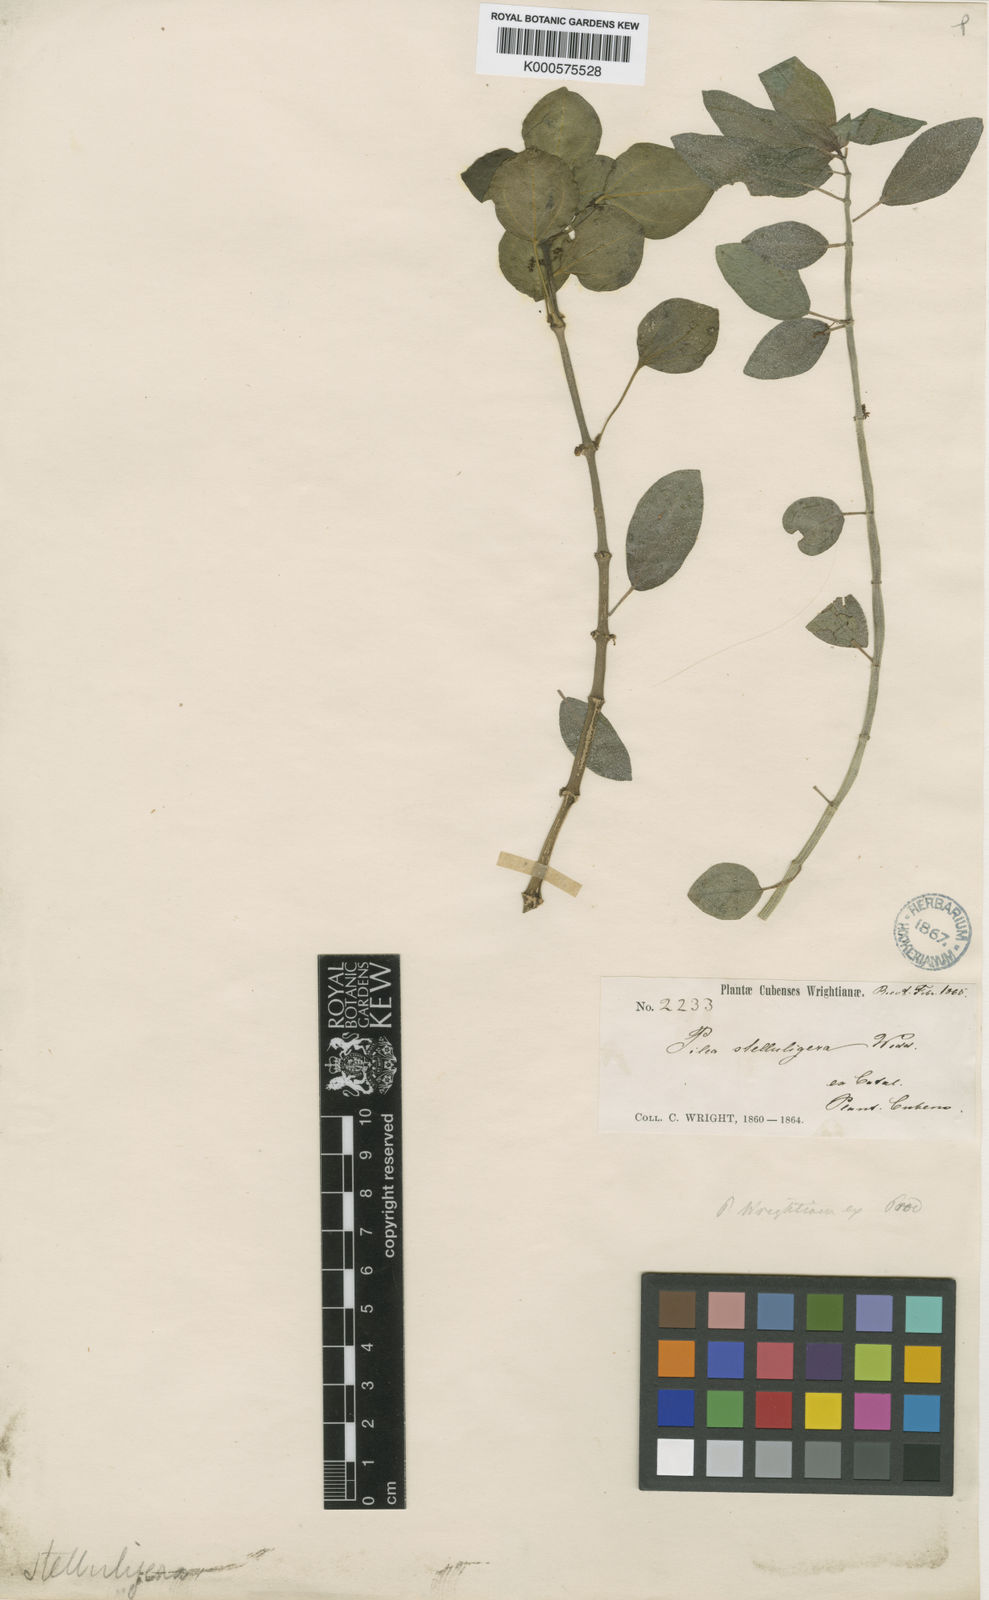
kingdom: Plantae
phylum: Tracheophyta
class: Magnoliopsida
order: Rosales
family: Urticaceae
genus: Pilea
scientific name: Pilea wrightiana
